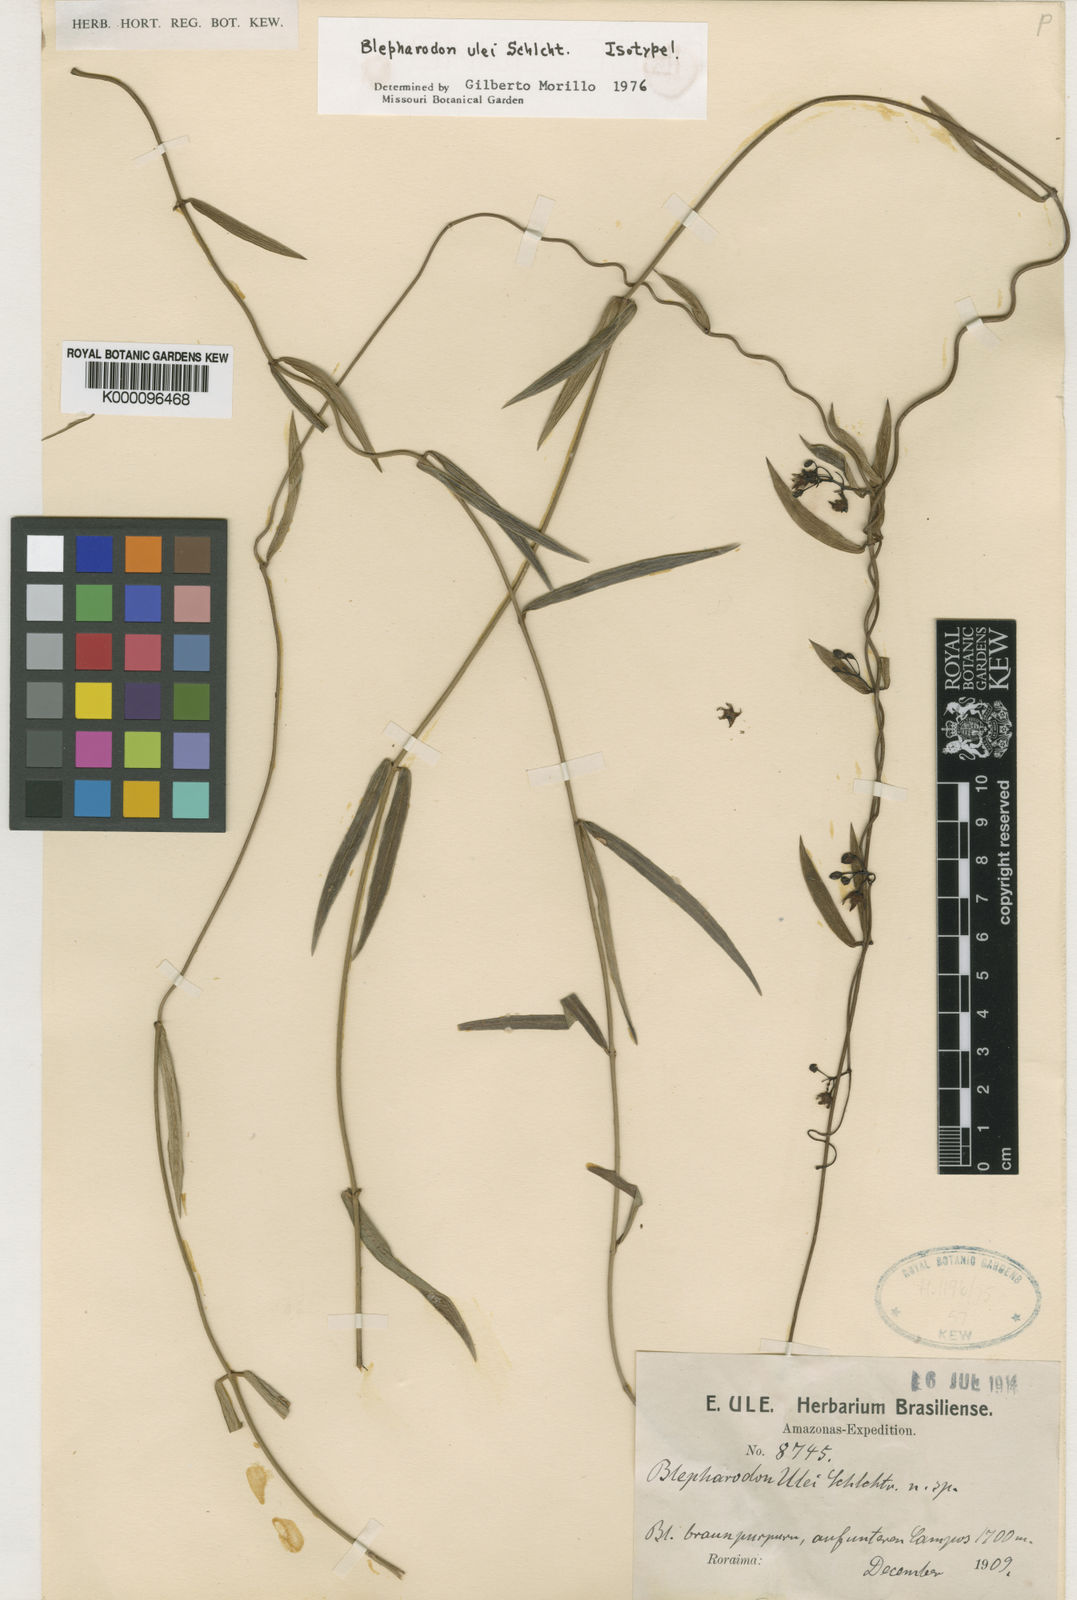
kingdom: Plantae
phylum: Tracheophyta
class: Magnoliopsida
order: Gentianales
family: Apocynaceae
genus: Blepharodon
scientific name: Blepharodon ulei
